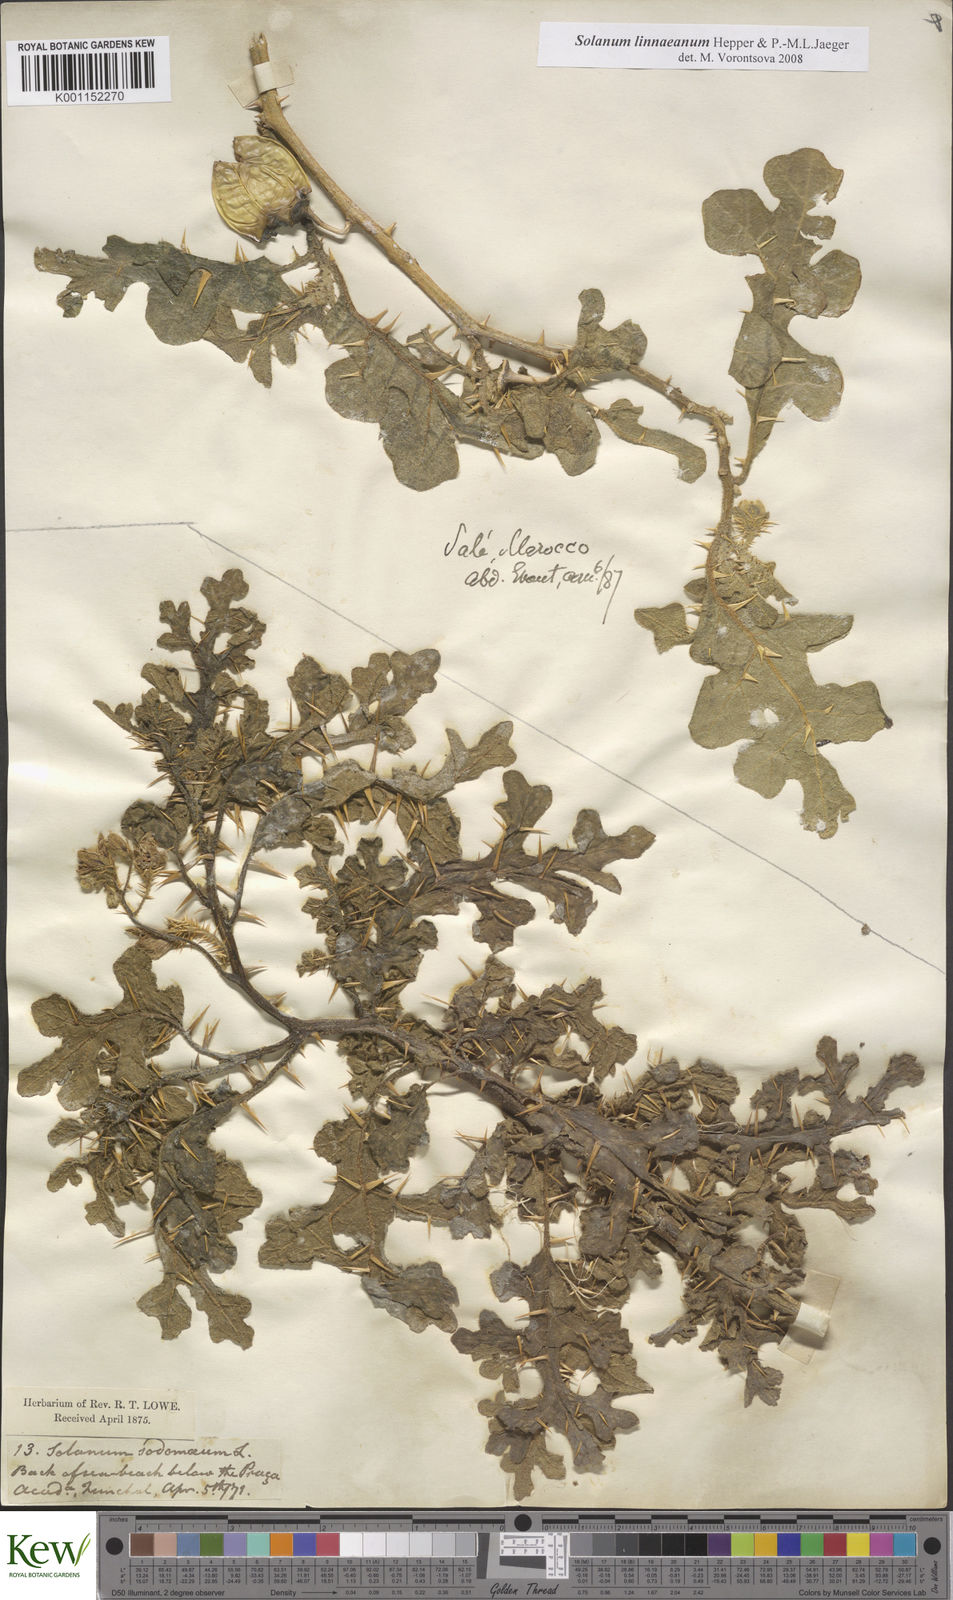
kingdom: Plantae
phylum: Tracheophyta
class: Magnoliopsida
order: Solanales
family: Solanaceae
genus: Solanum
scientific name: Solanum linnaeanum
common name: Nightshade
